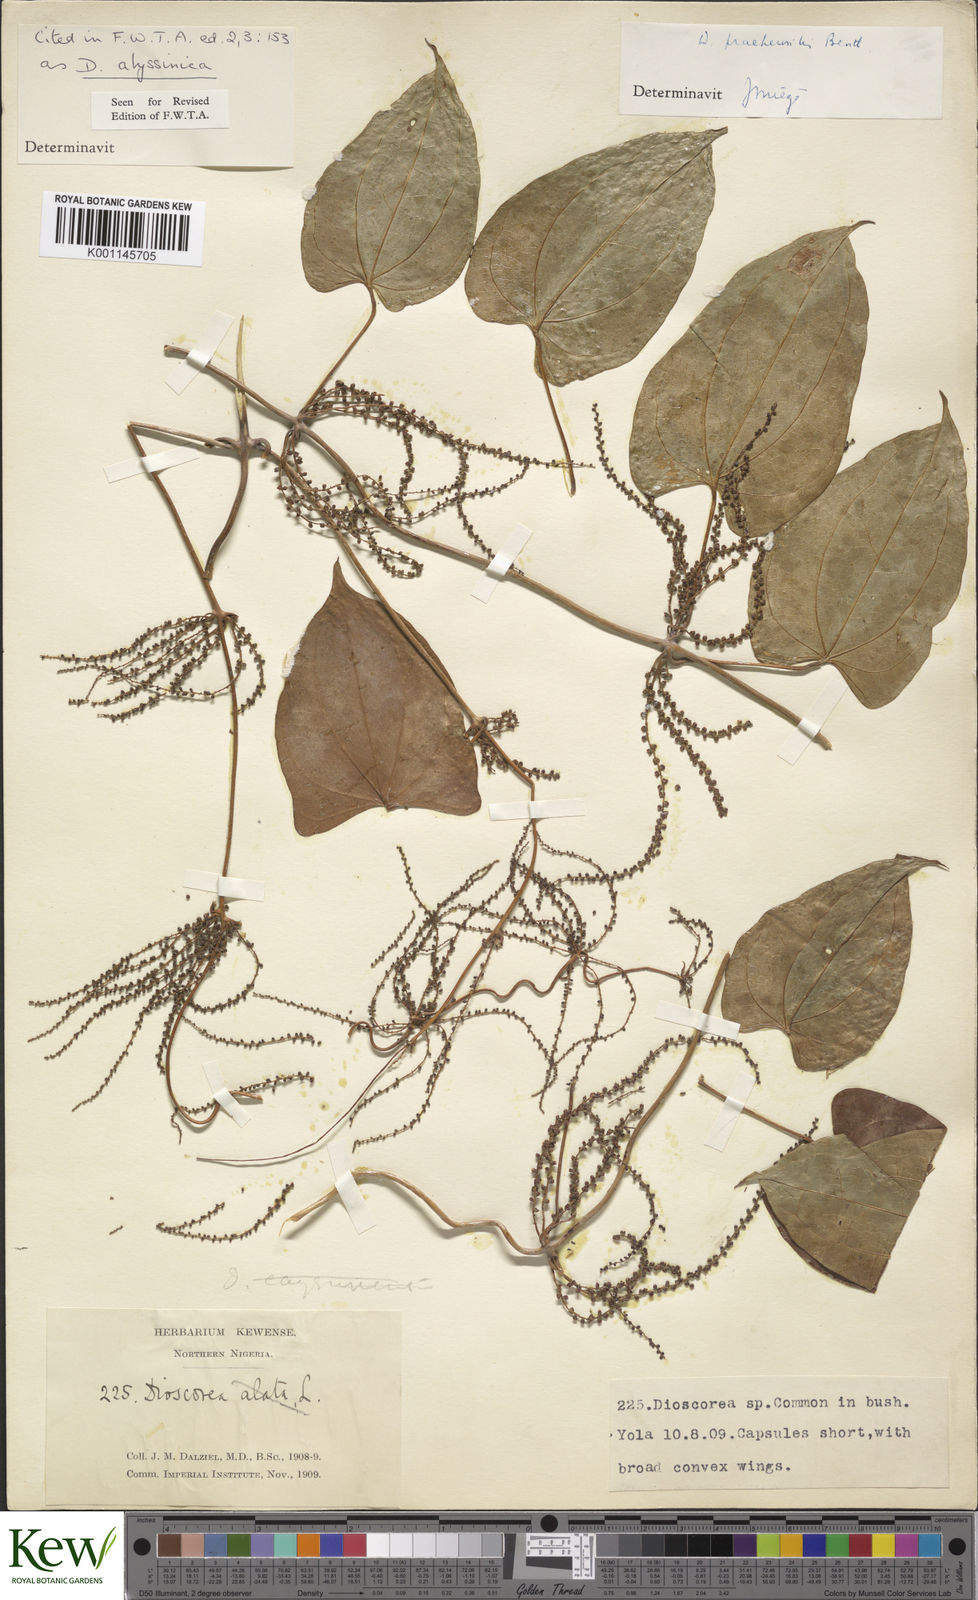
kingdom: Plantae
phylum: Tracheophyta
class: Liliopsida
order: Dioscoreales
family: Dioscoreaceae
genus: Dioscorea
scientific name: Dioscorea abyssinica
